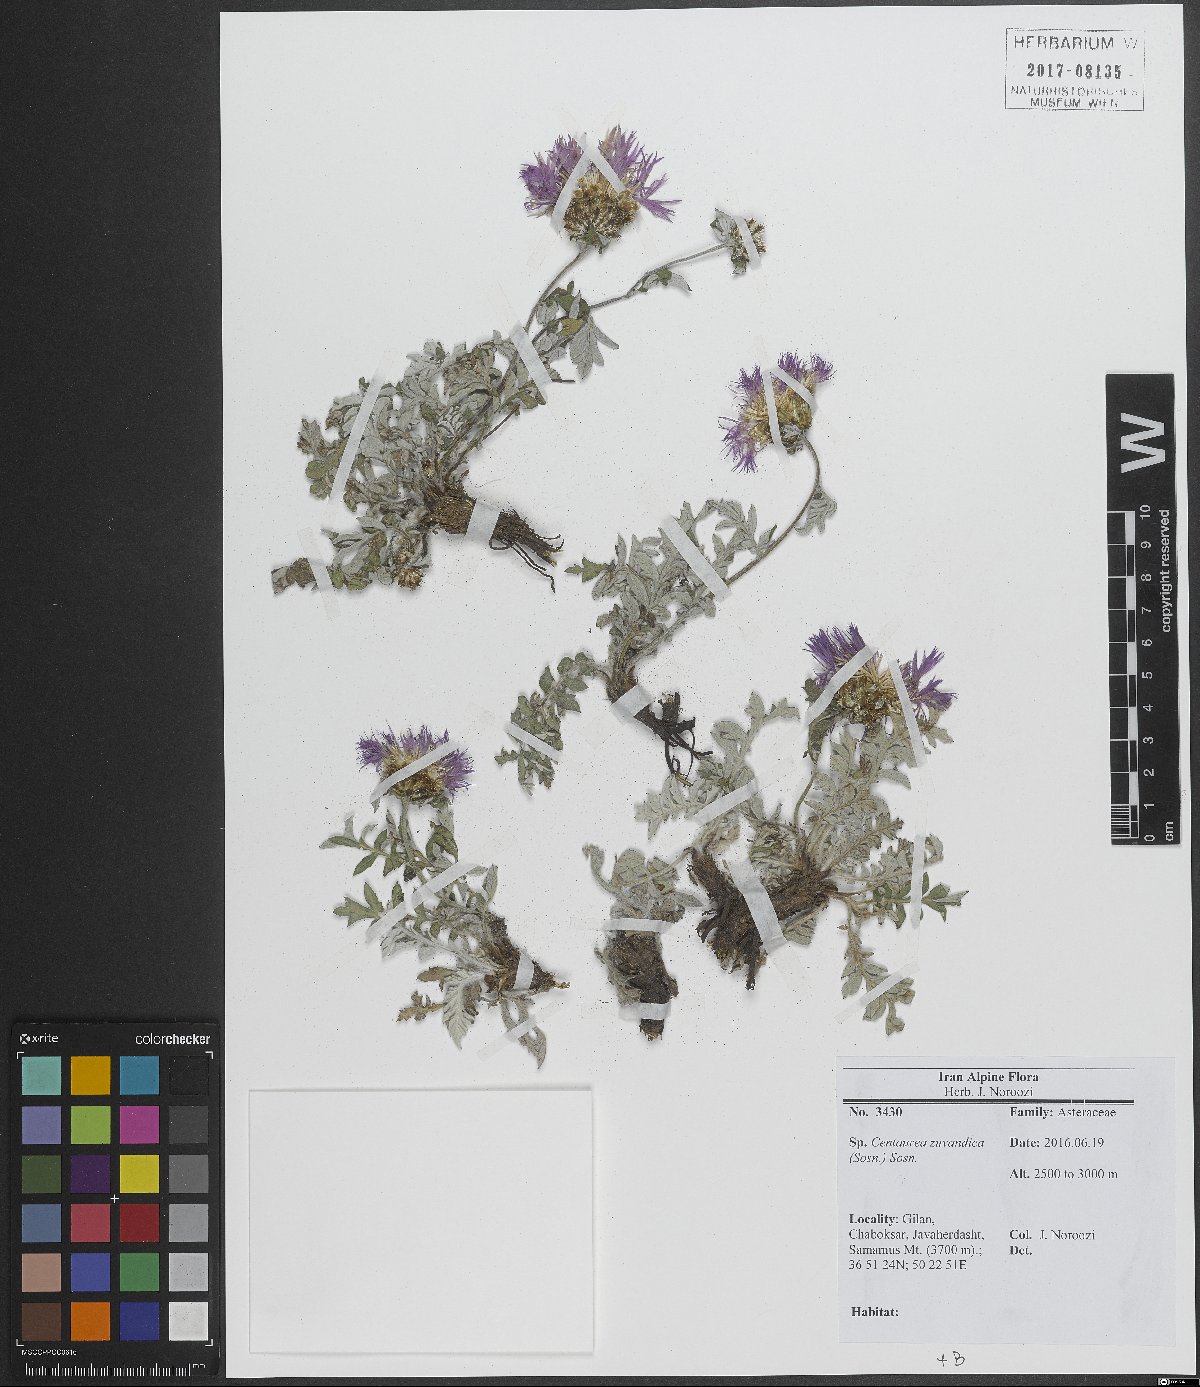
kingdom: Plantae
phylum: Tracheophyta
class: Magnoliopsida
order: Asterales
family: Asteraceae
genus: Psephellus
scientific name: Psephellus zuvandicus
